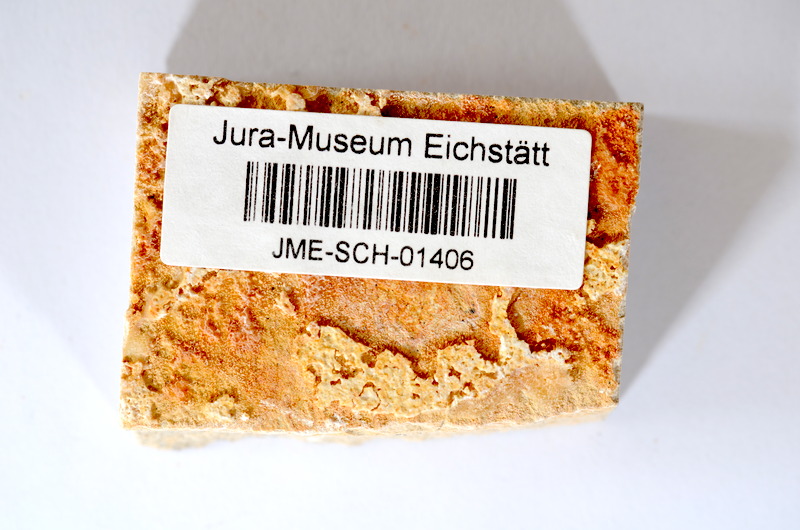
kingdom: Animalia
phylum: Chordata
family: Ascalaboidae
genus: Tharsis
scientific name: Tharsis dubius
